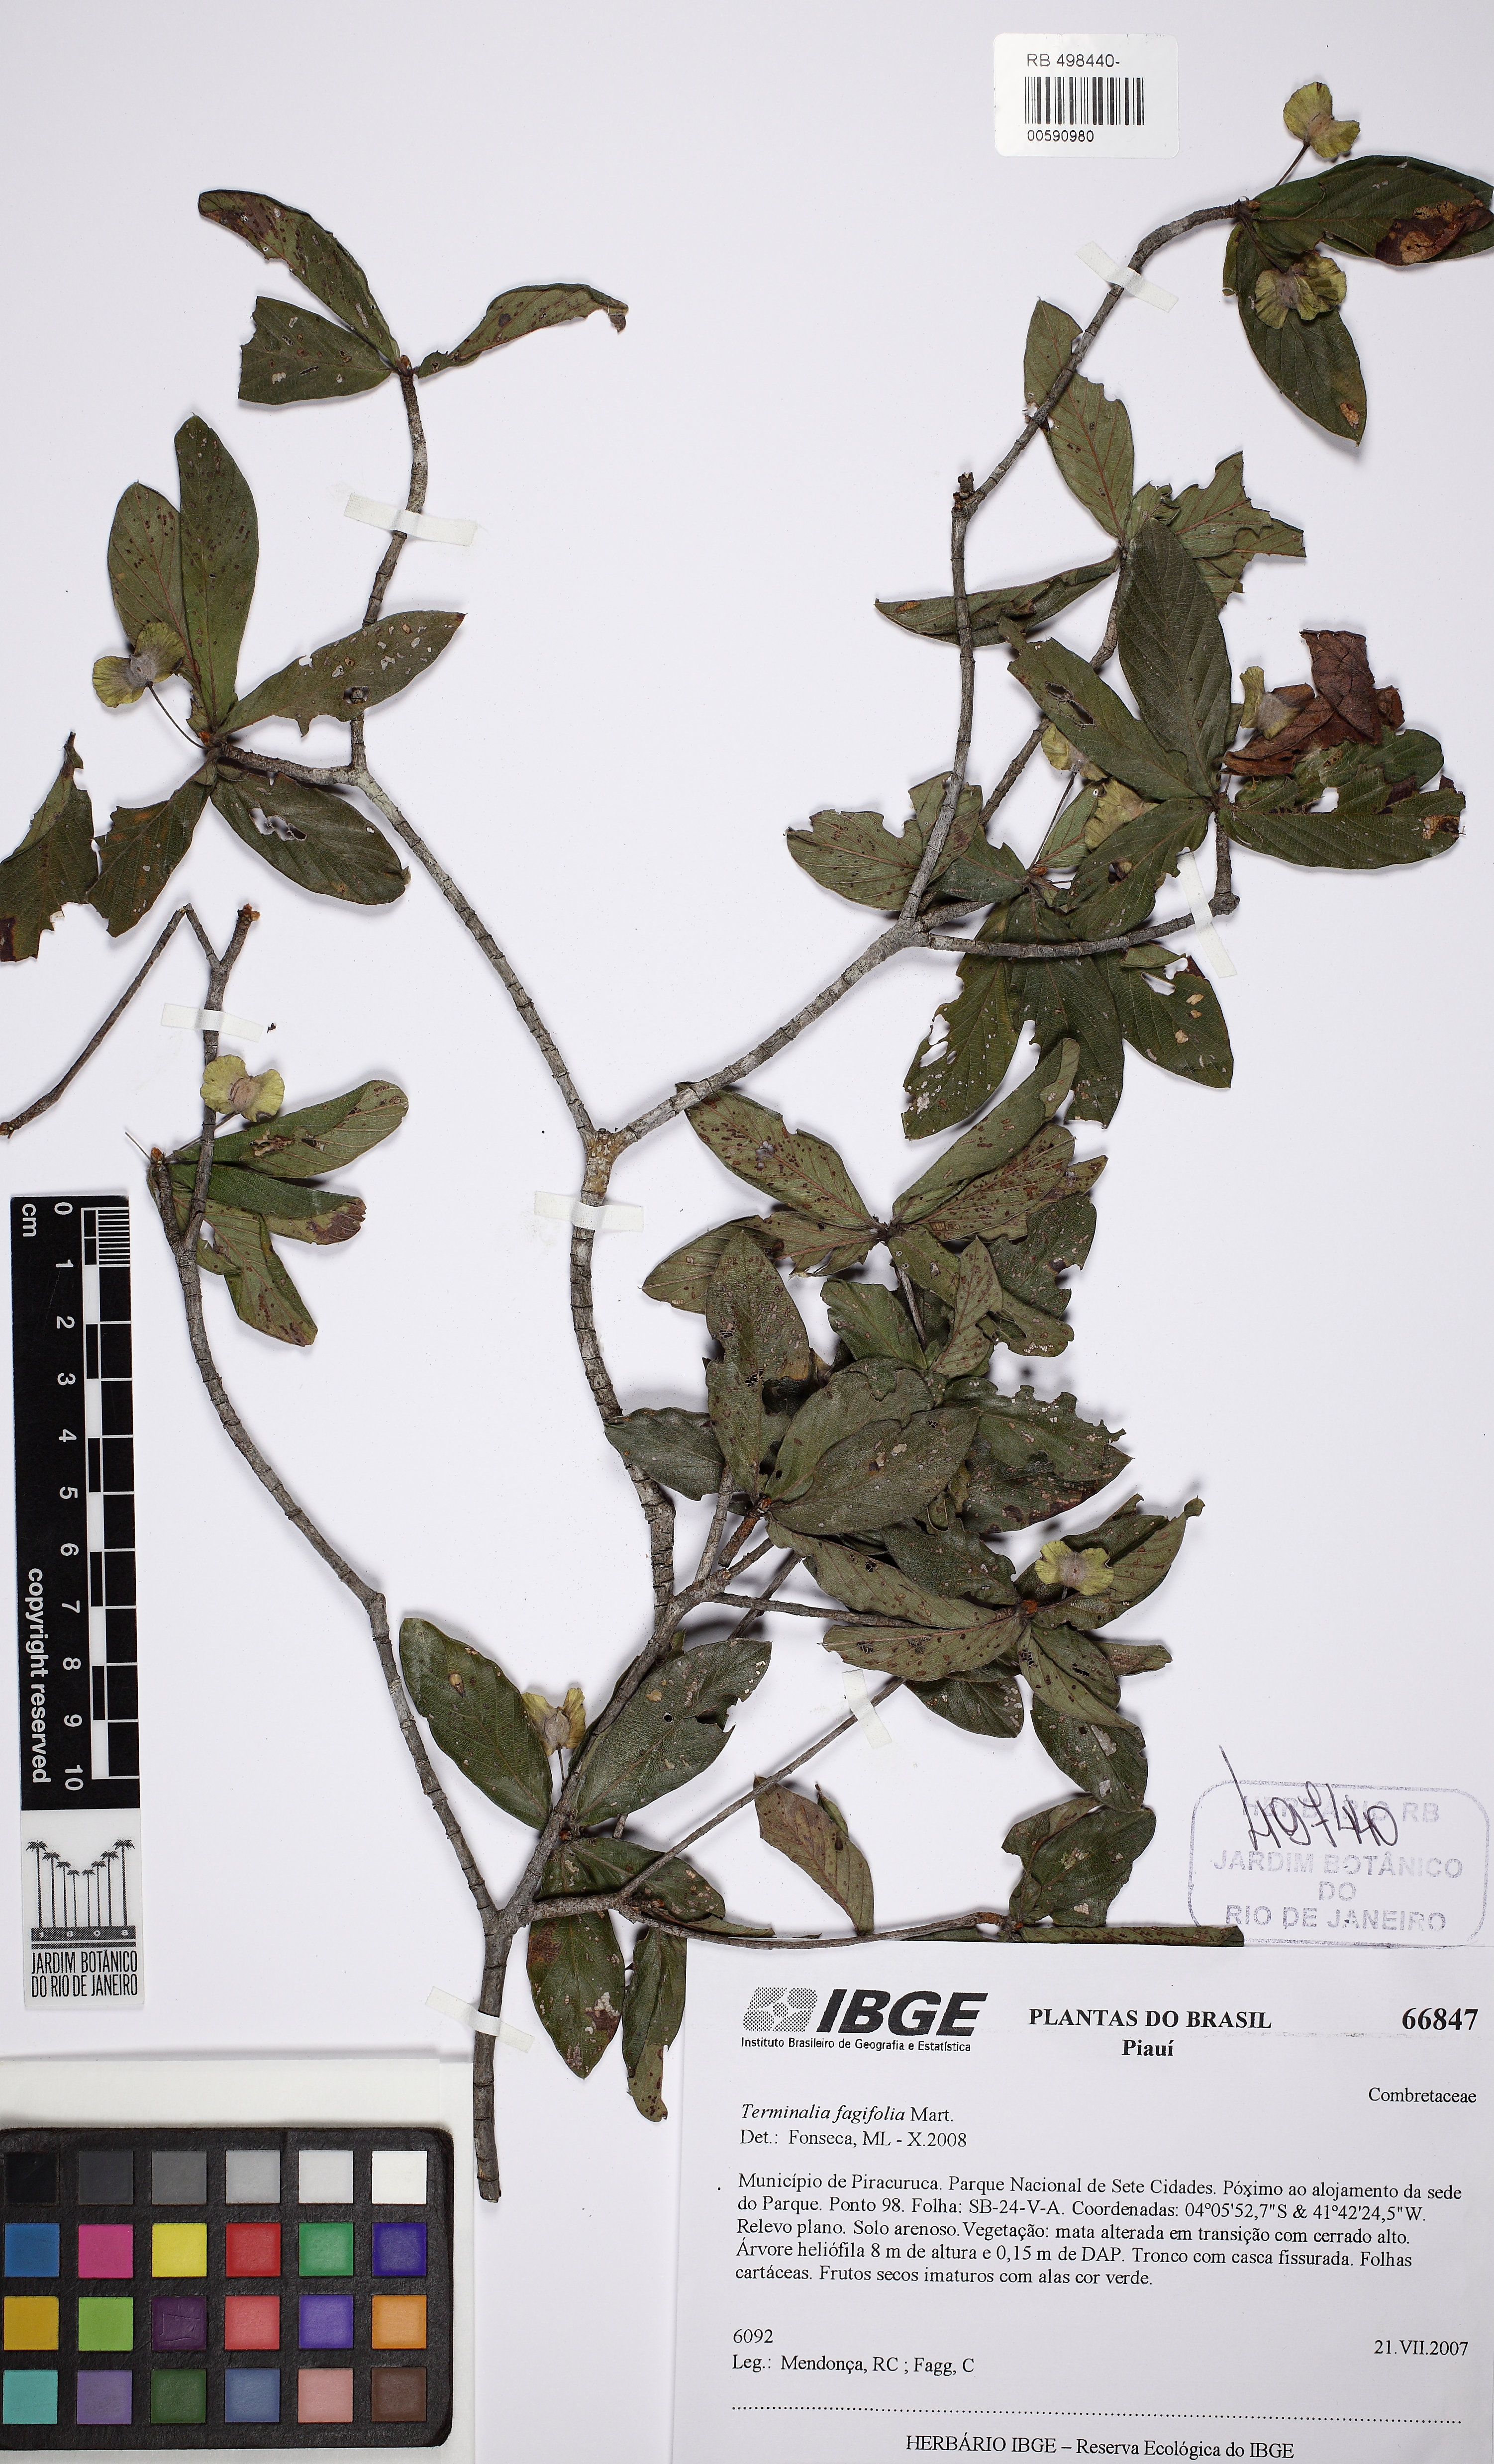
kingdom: Plantae
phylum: Tracheophyta
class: Magnoliopsida
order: Myrtales
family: Combretaceae
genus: Terminalia
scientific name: Terminalia fagifolia
